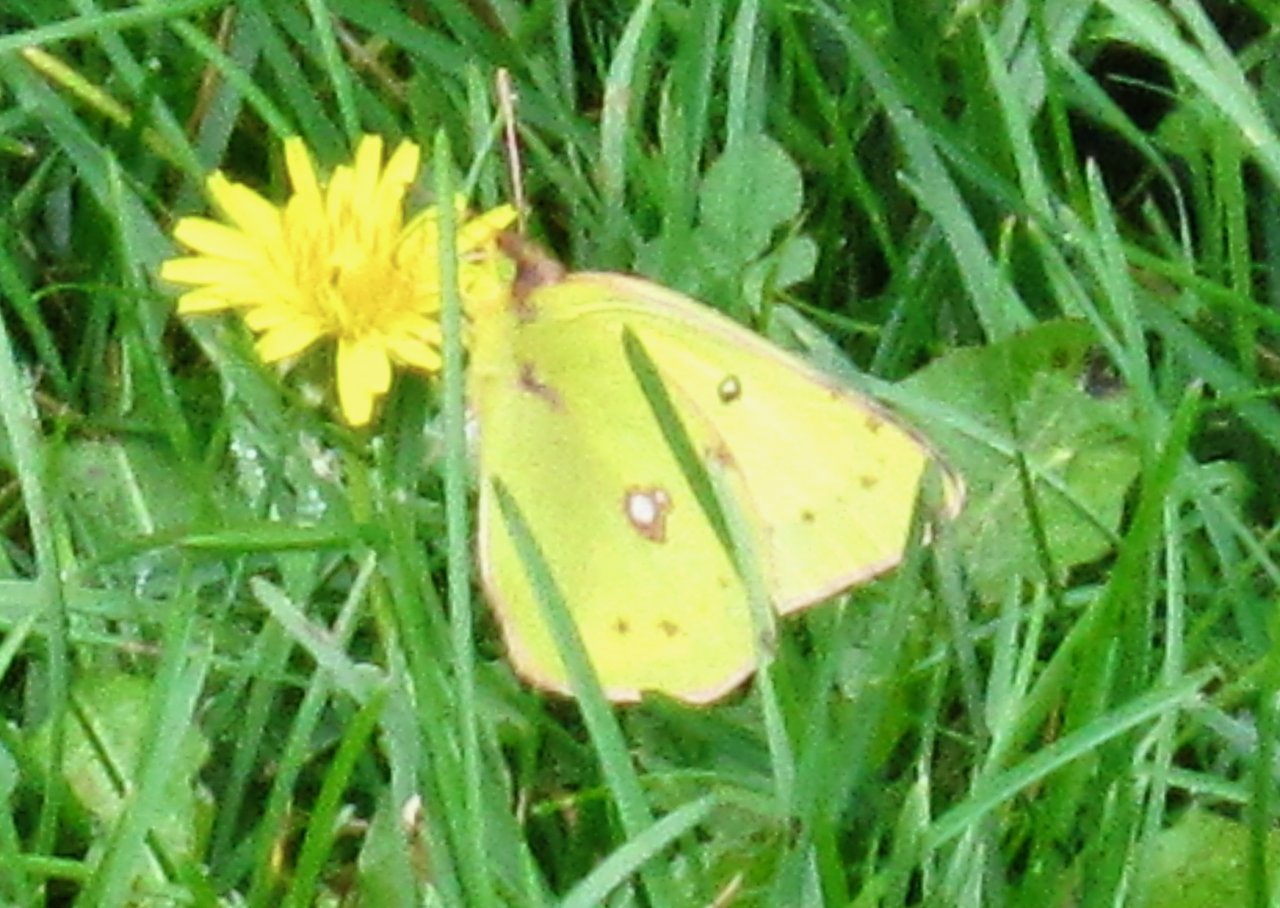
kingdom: Animalia
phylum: Arthropoda
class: Insecta
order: Lepidoptera
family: Pieridae
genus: Colias
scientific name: Colias philodice
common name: Clouded Sulphur
